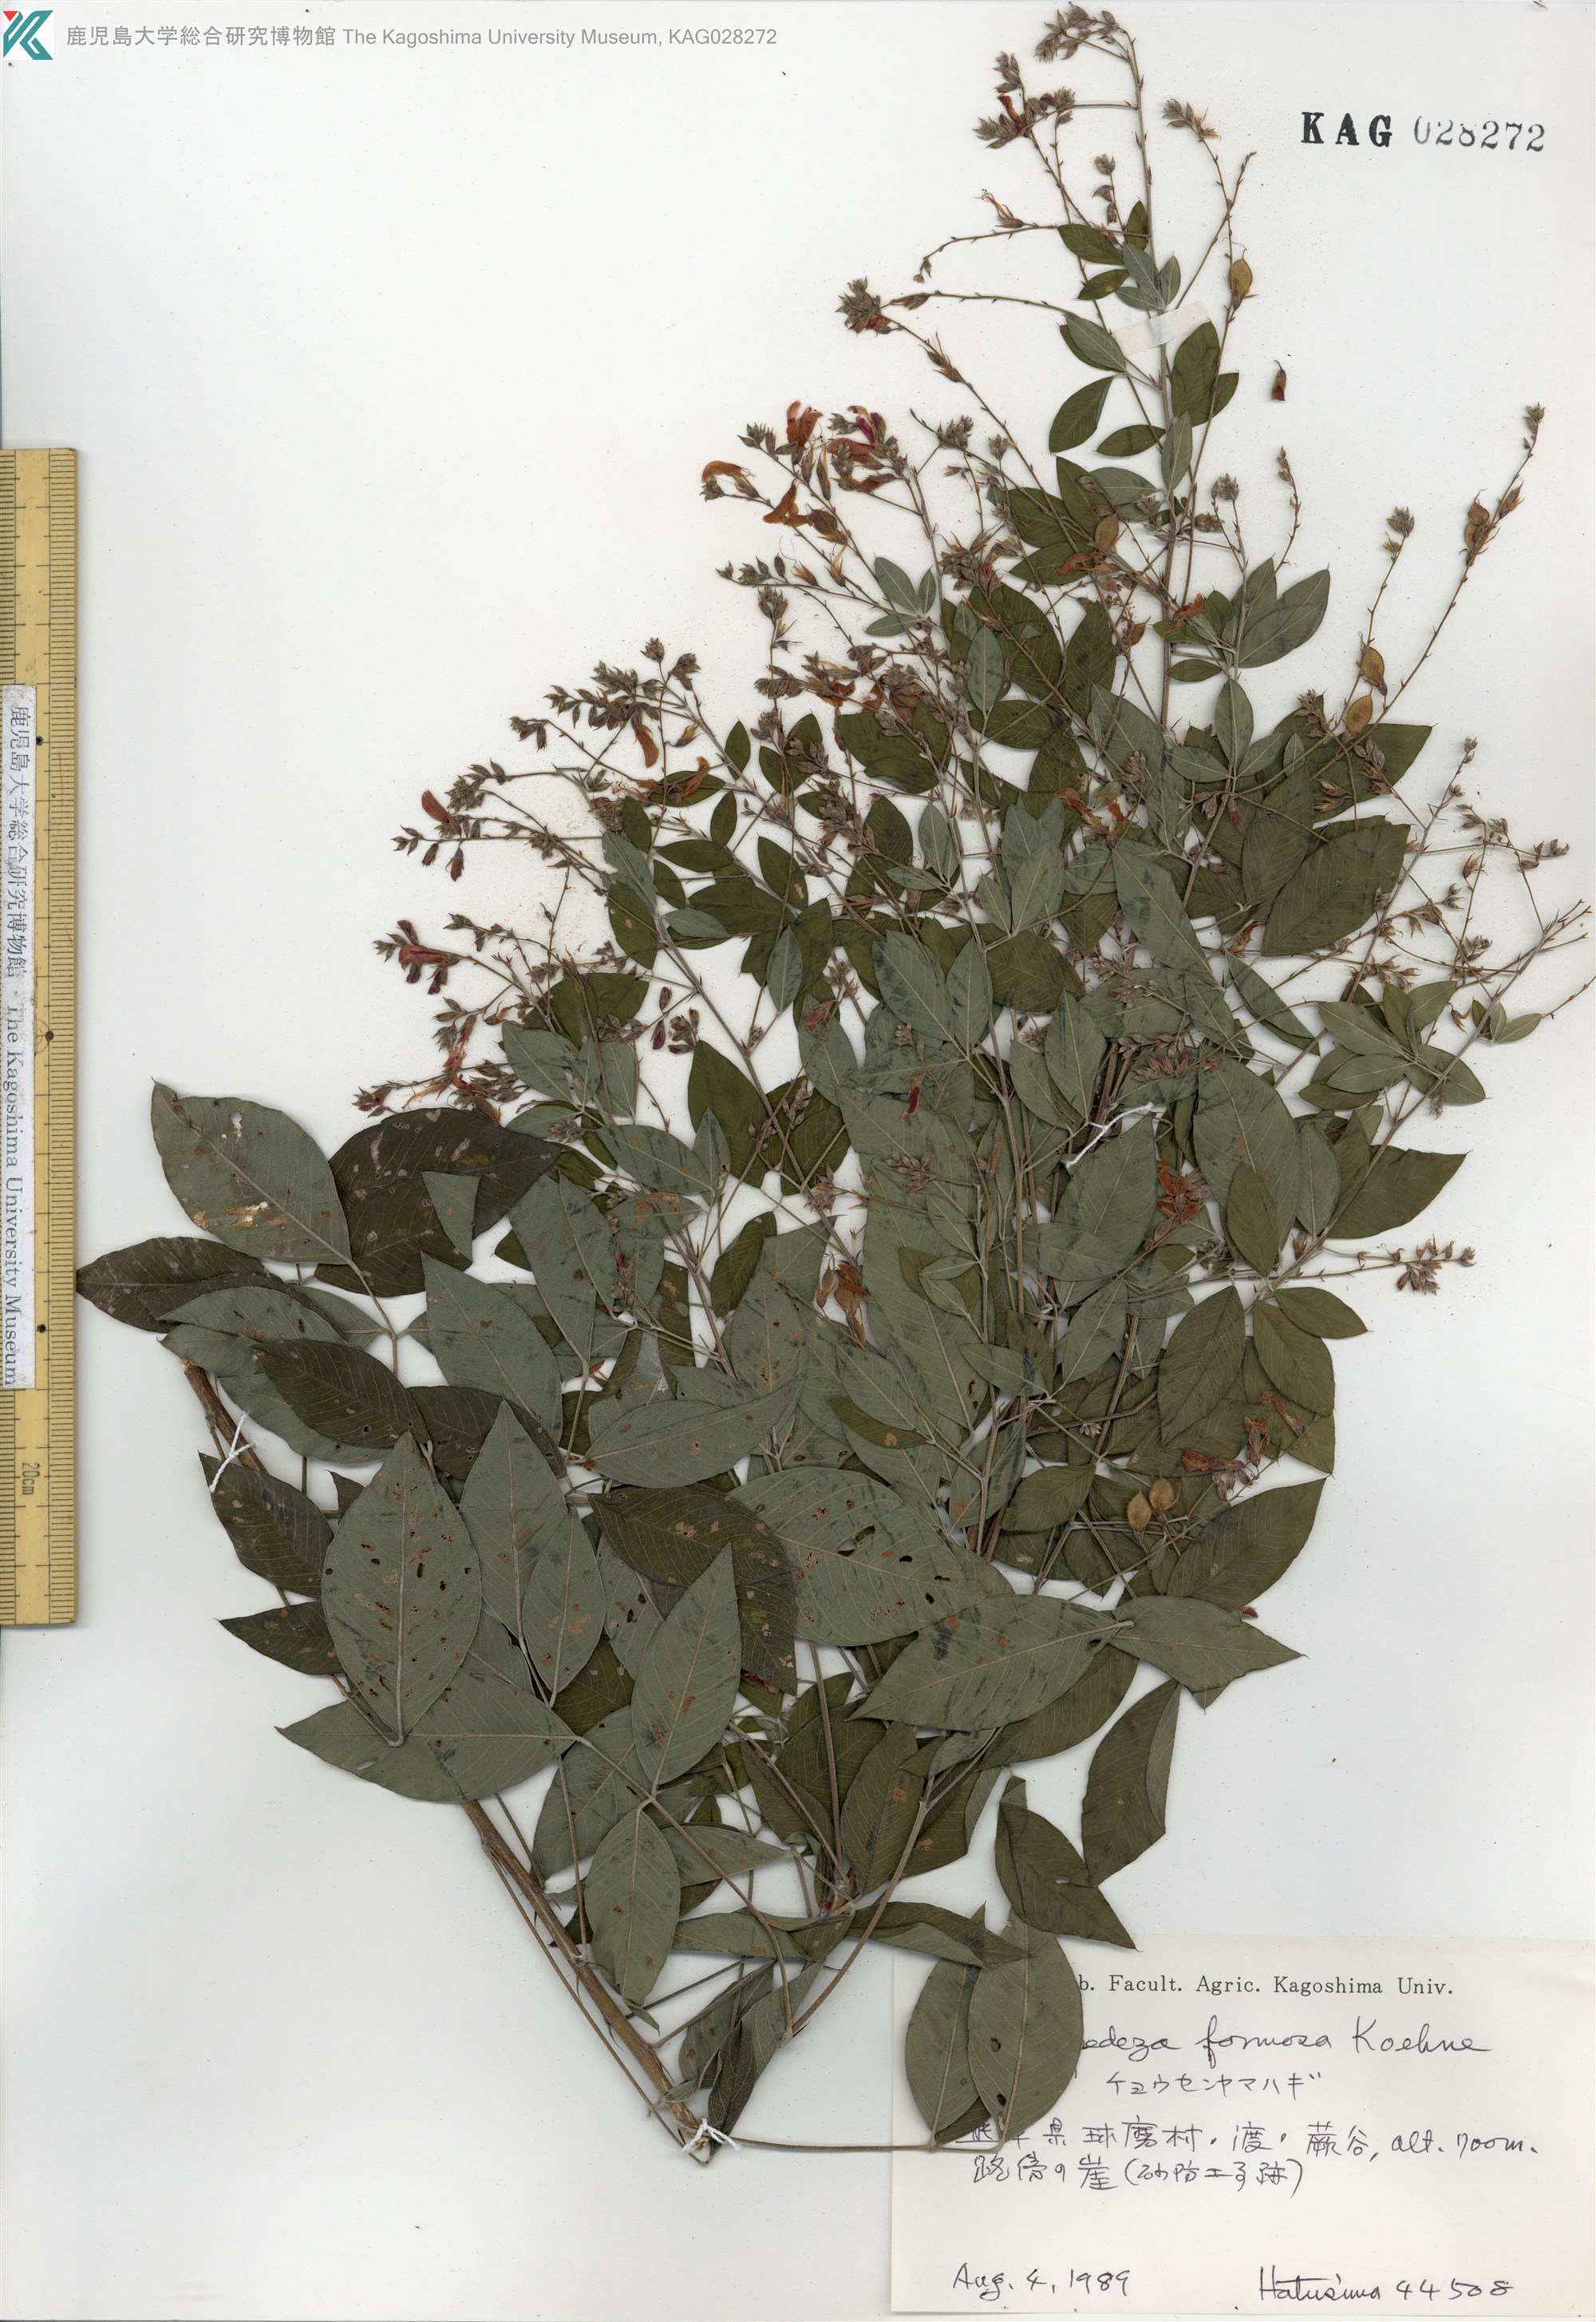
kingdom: Plantae
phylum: Tracheophyta
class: Magnoliopsida
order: Fabales
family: Fabaceae
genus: Lespedeza
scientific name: Lespedeza thunbergii
